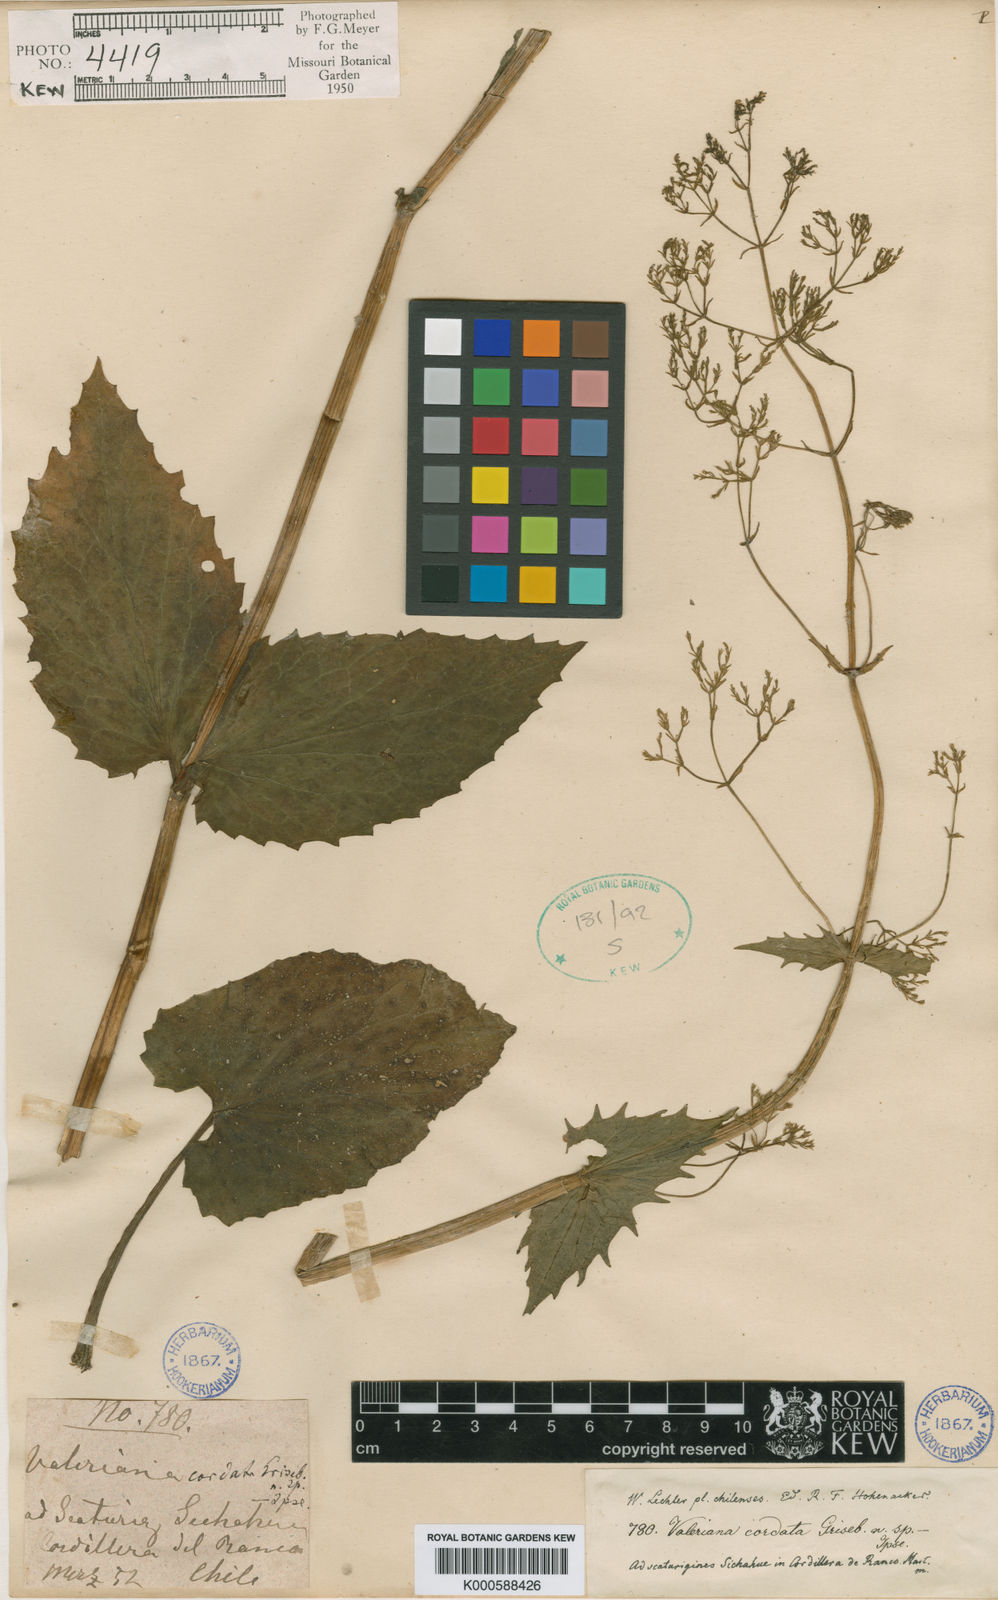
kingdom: Plantae
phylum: Tracheophyta
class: Magnoliopsida
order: Dipsacales
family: Caprifoliaceae
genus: Valeriana
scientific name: Valeriana lapathifolia
